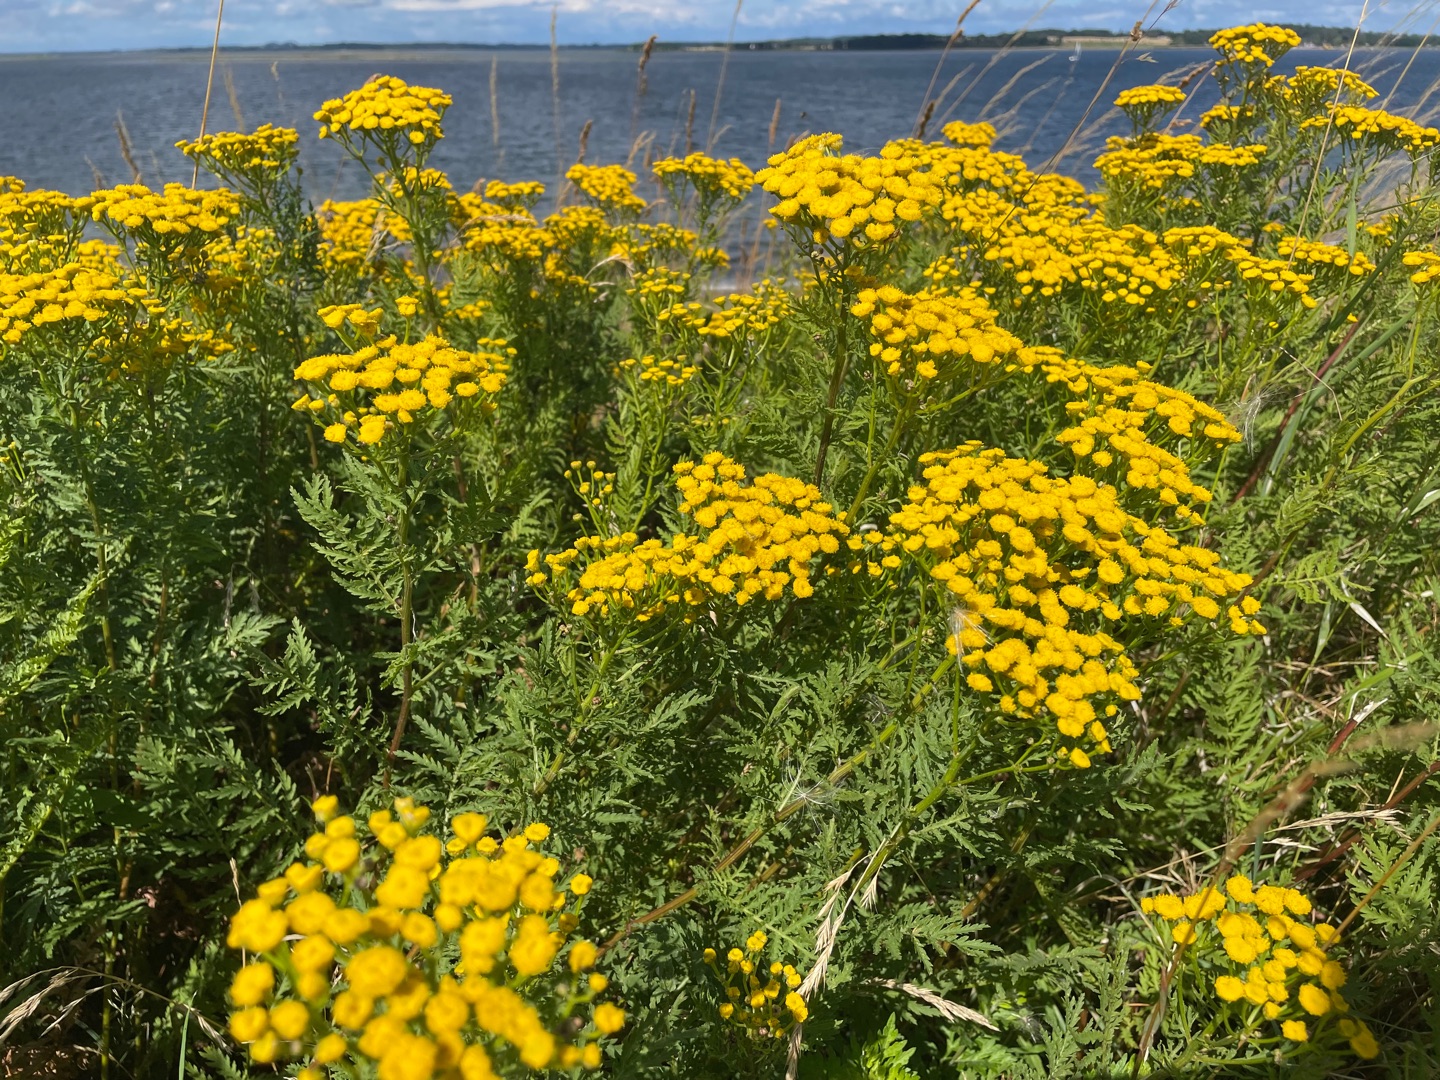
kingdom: Plantae
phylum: Tracheophyta
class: Magnoliopsida
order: Asterales
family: Asteraceae
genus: Tanacetum
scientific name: Tanacetum vulgare
